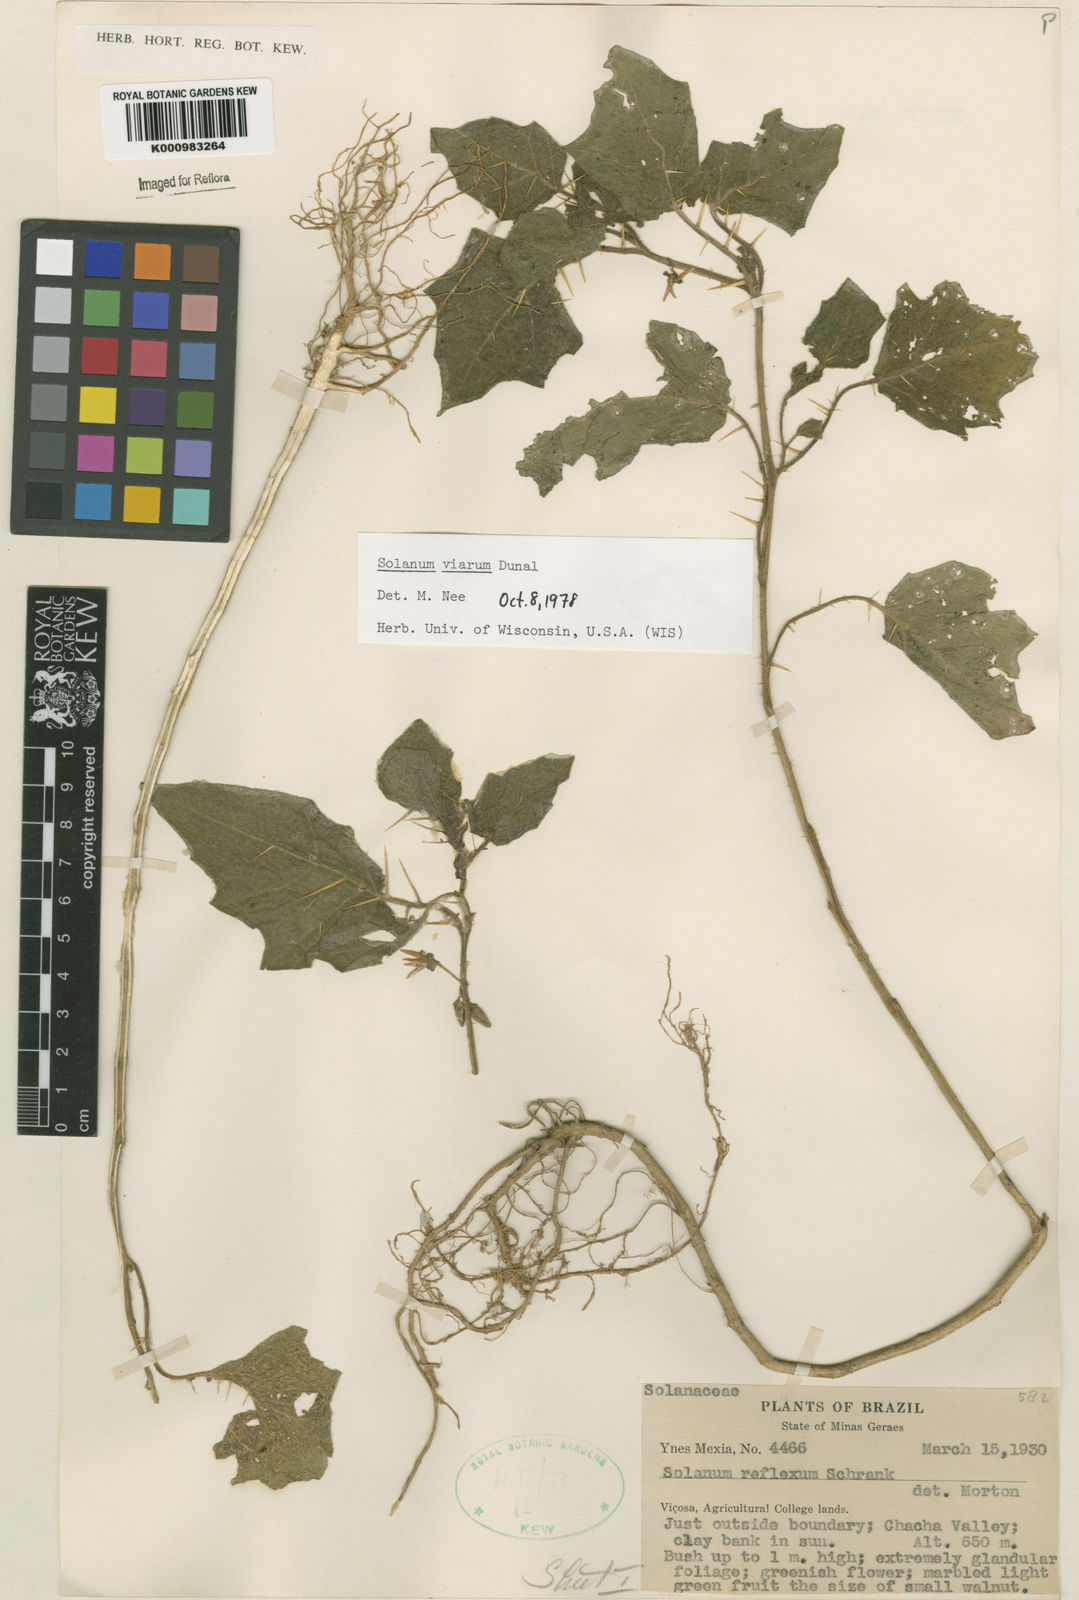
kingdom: Plantae
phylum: Tracheophyta
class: Magnoliopsida
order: Solanales
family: Solanaceae
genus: Solanum
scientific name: Solanum viarum
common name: Tropical soda apple
